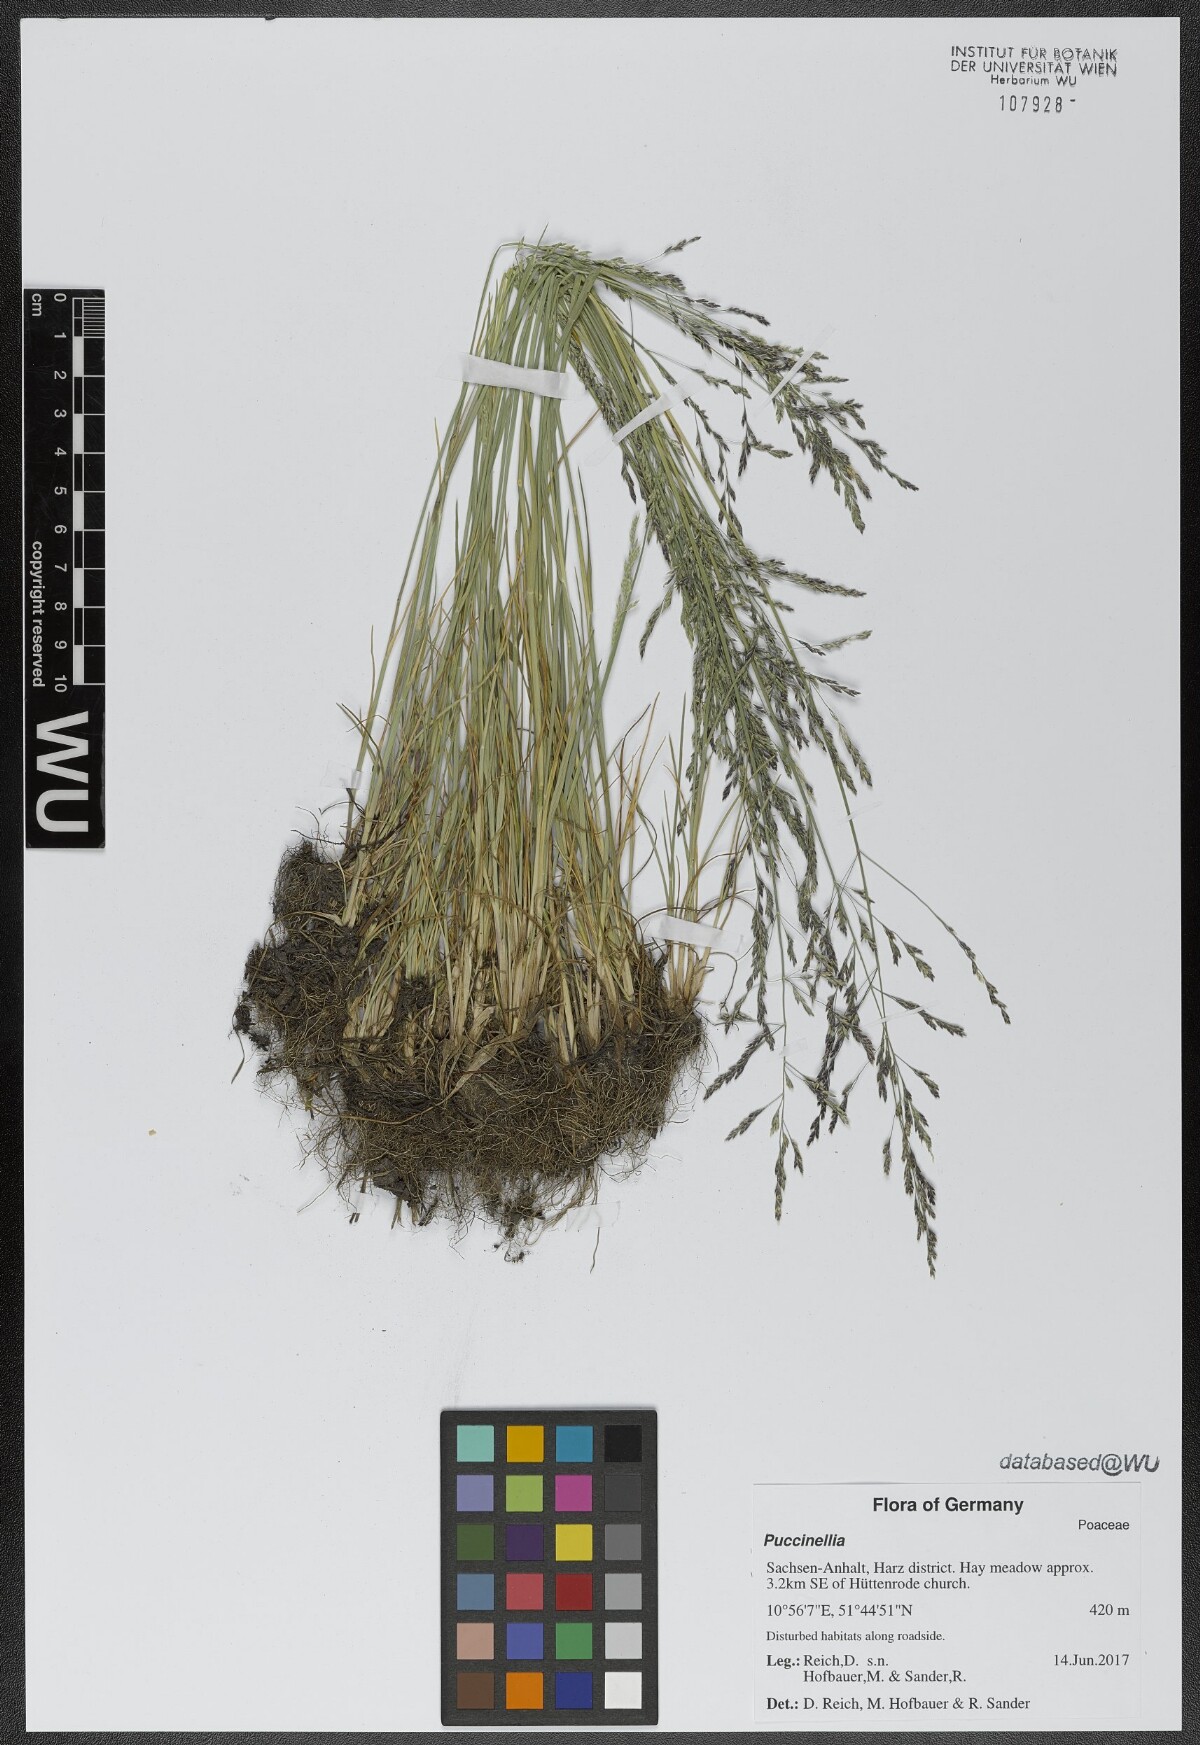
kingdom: Plantae
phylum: Tracheophyta
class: Liliopsida
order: Poales
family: Poaceae
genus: Puccinellia
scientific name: Puccinellia
